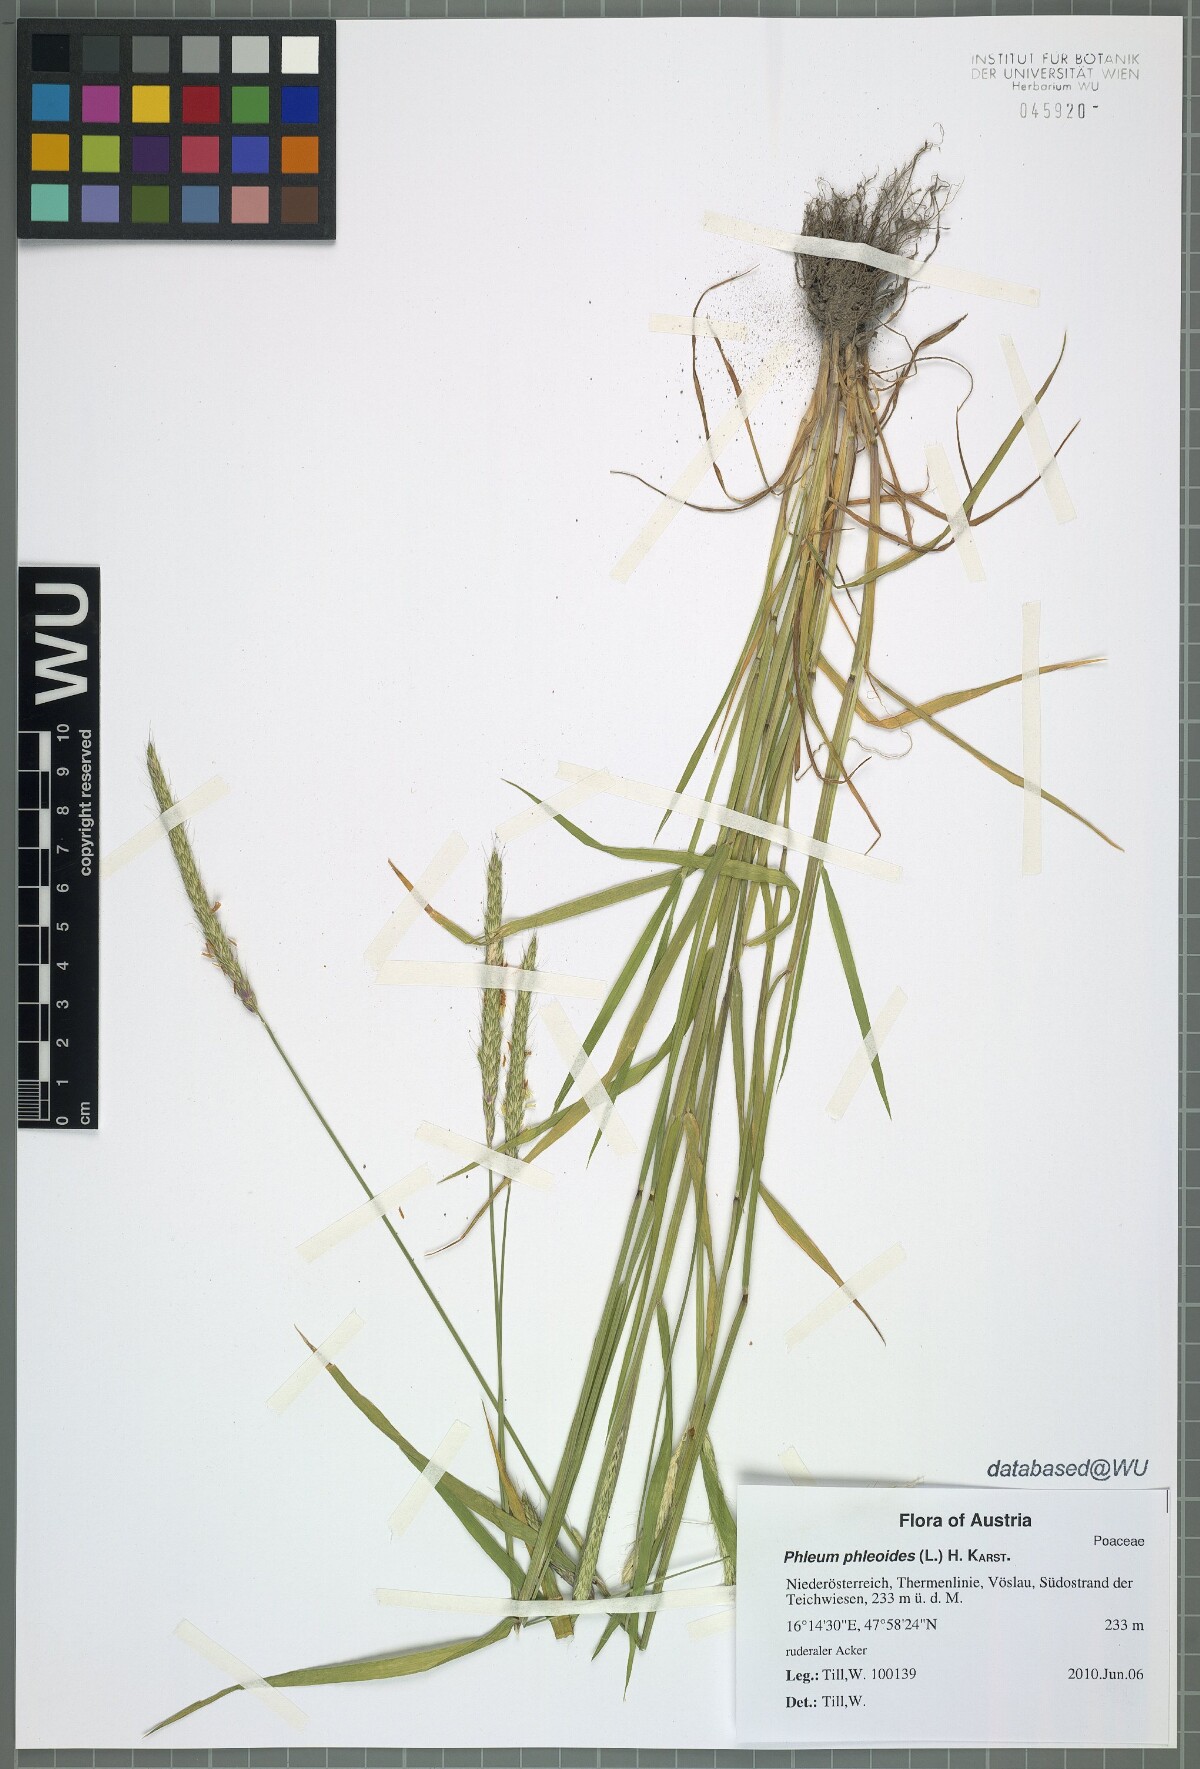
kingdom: Plantae
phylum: Tracheophyta
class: Liliopsida
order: Poales
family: Poaceae
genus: Alopecurus
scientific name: Alopecurus myosuroides
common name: Black-grass
